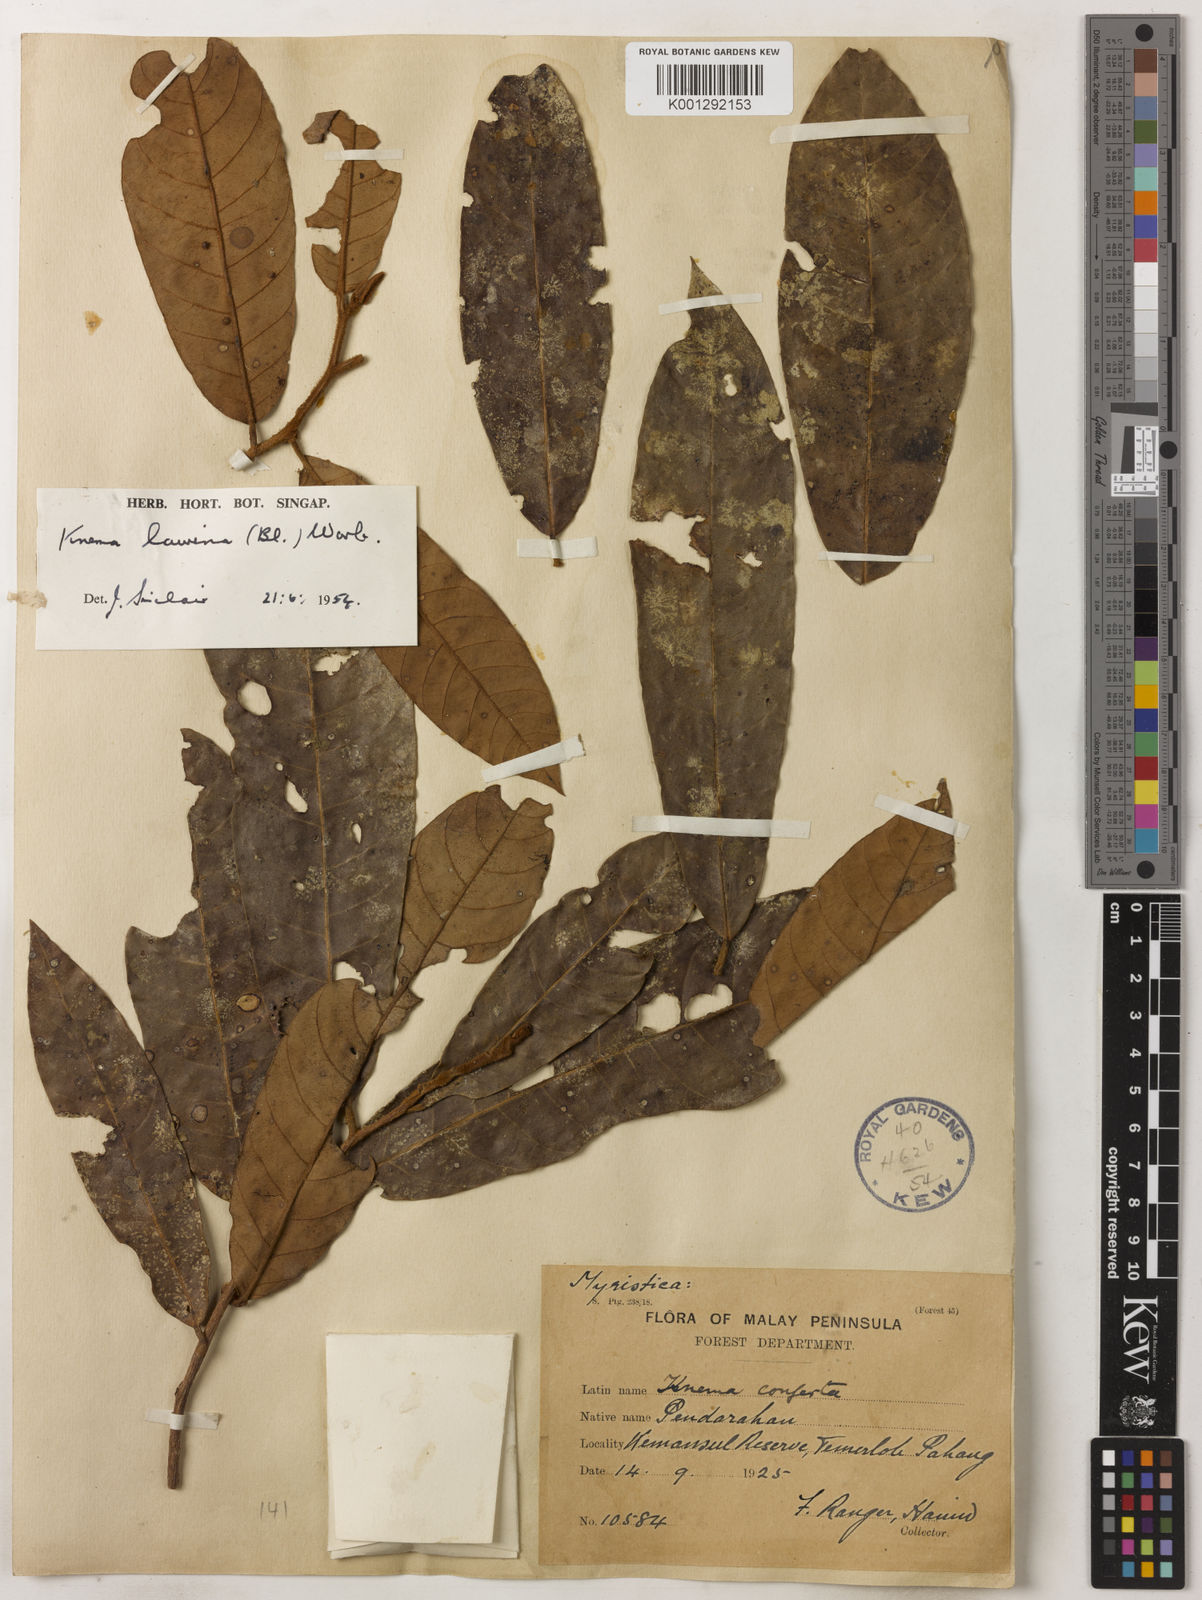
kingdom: Plantae
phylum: Tracheophyta
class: Magnoliopsida
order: Magnoliales
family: Myristicaceae
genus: Knema
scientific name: Knema laurina
